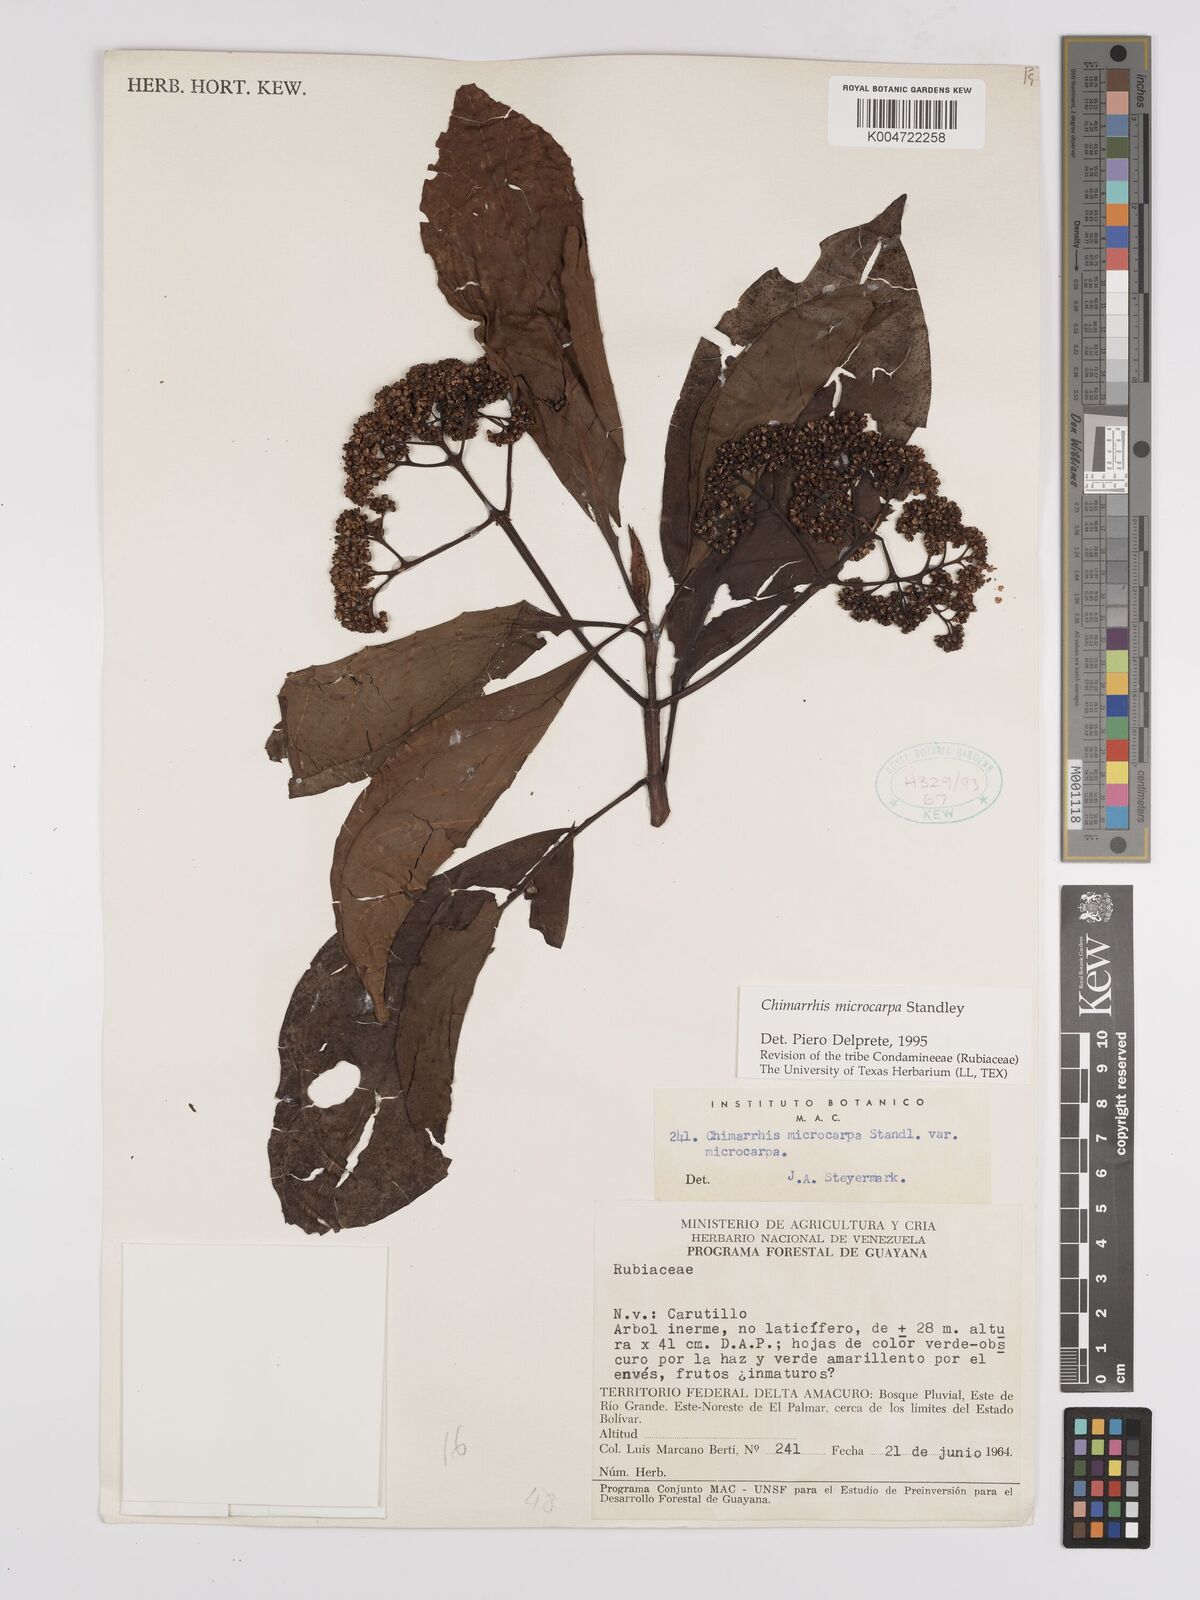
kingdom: Plantae
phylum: Tracheophyta
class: Magnoliopsida
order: Gentianales
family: Rubiaceae
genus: Chimarrhis
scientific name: Chimarrhis microcarpa
